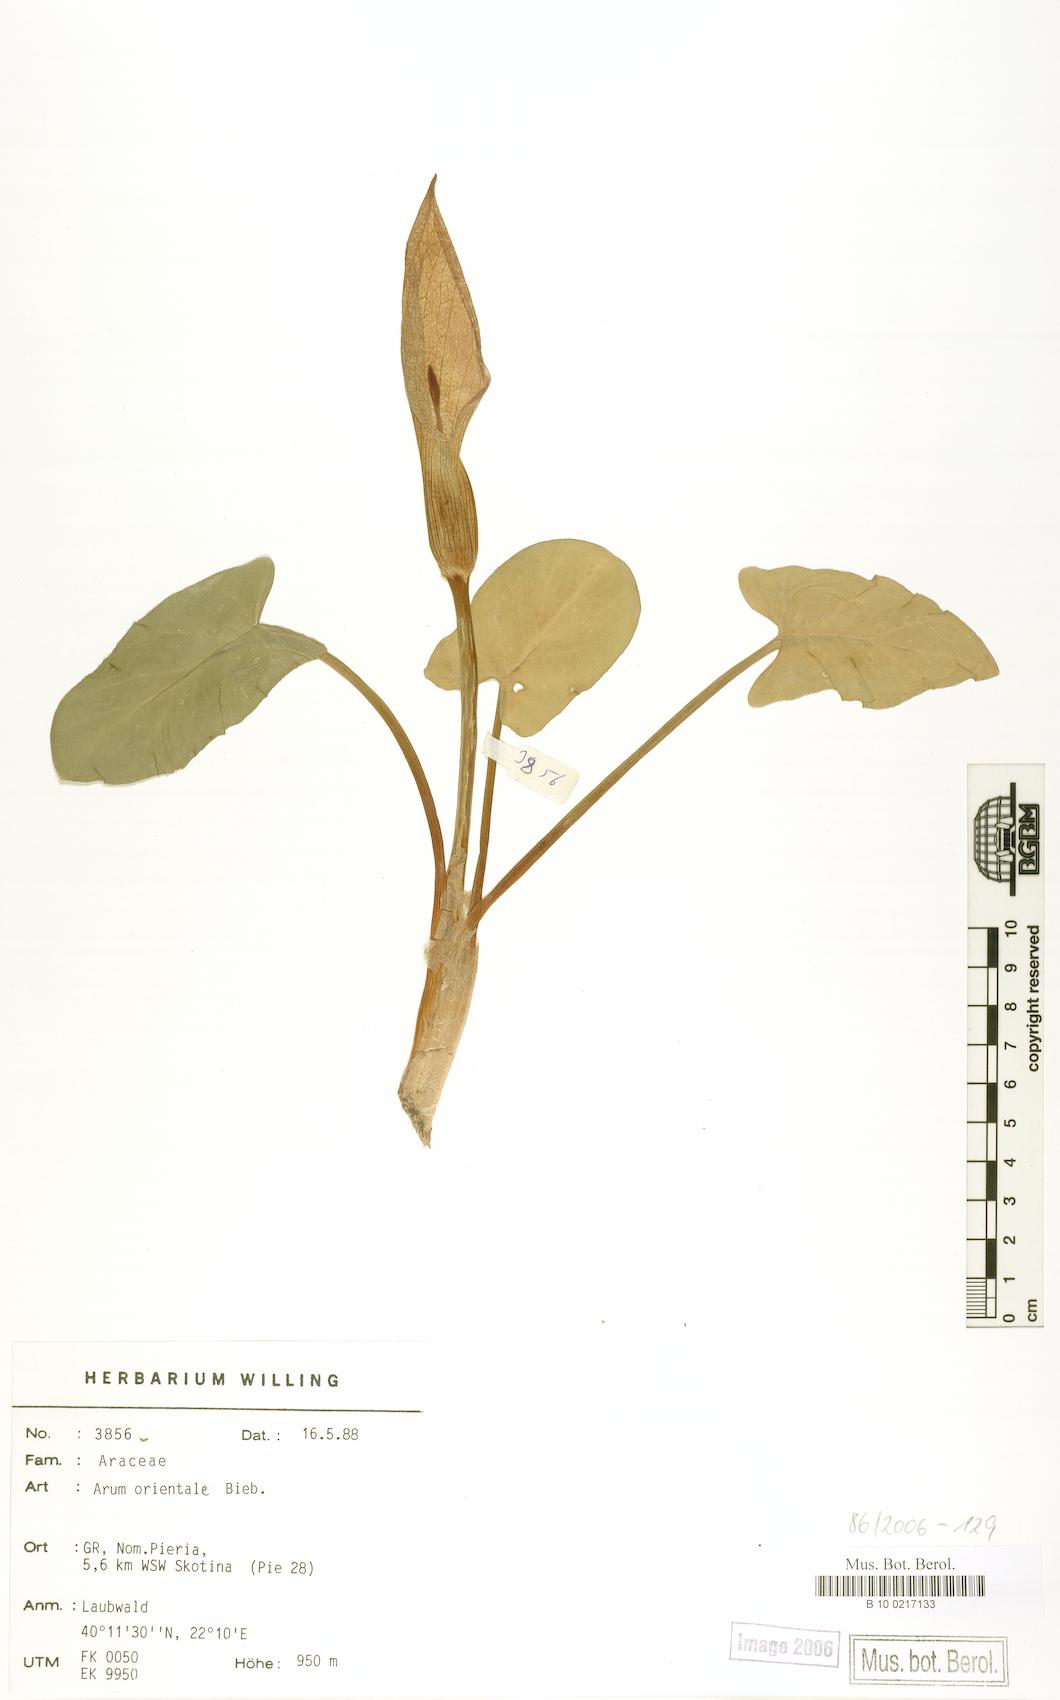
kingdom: Plantae
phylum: Tracheophyta
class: Liliopsida
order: Alismatales
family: Araceae
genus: Arum
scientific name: Arum orientale
